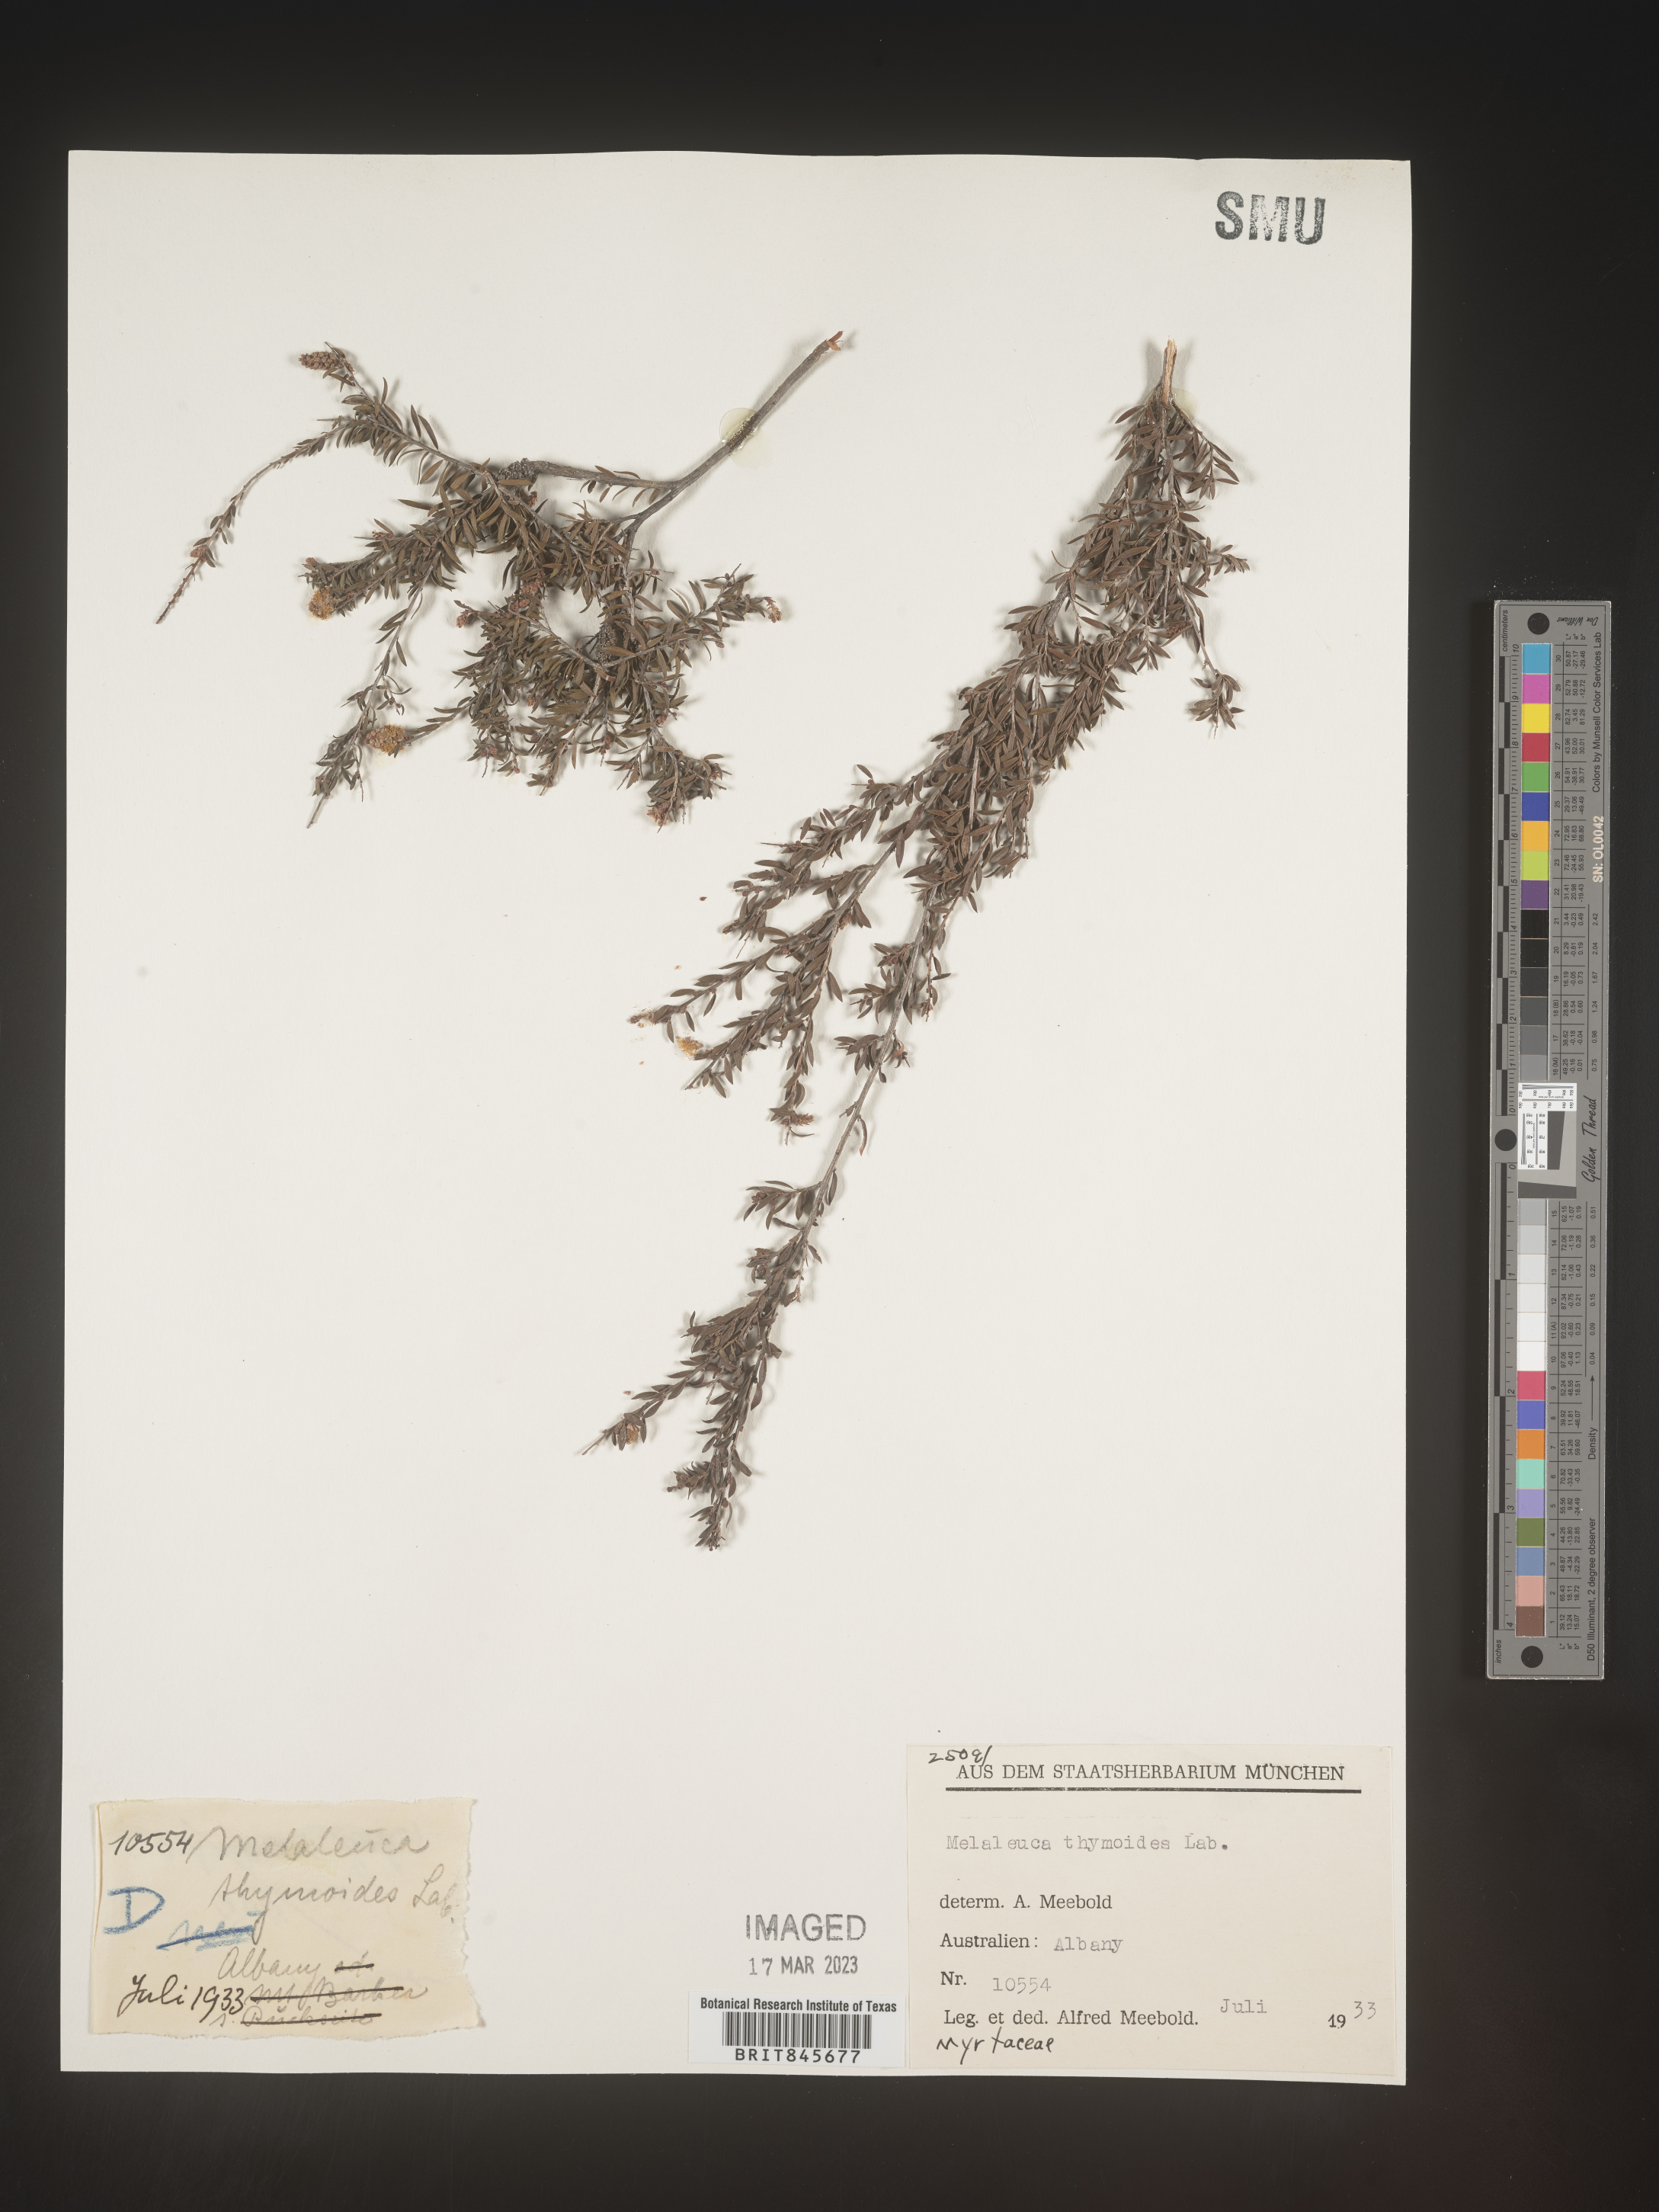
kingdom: Plantae
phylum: Tracheophyta
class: Magnoliopsida
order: Myrtales
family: Myrtaceae
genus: Melaleuca
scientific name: Melaleuca
